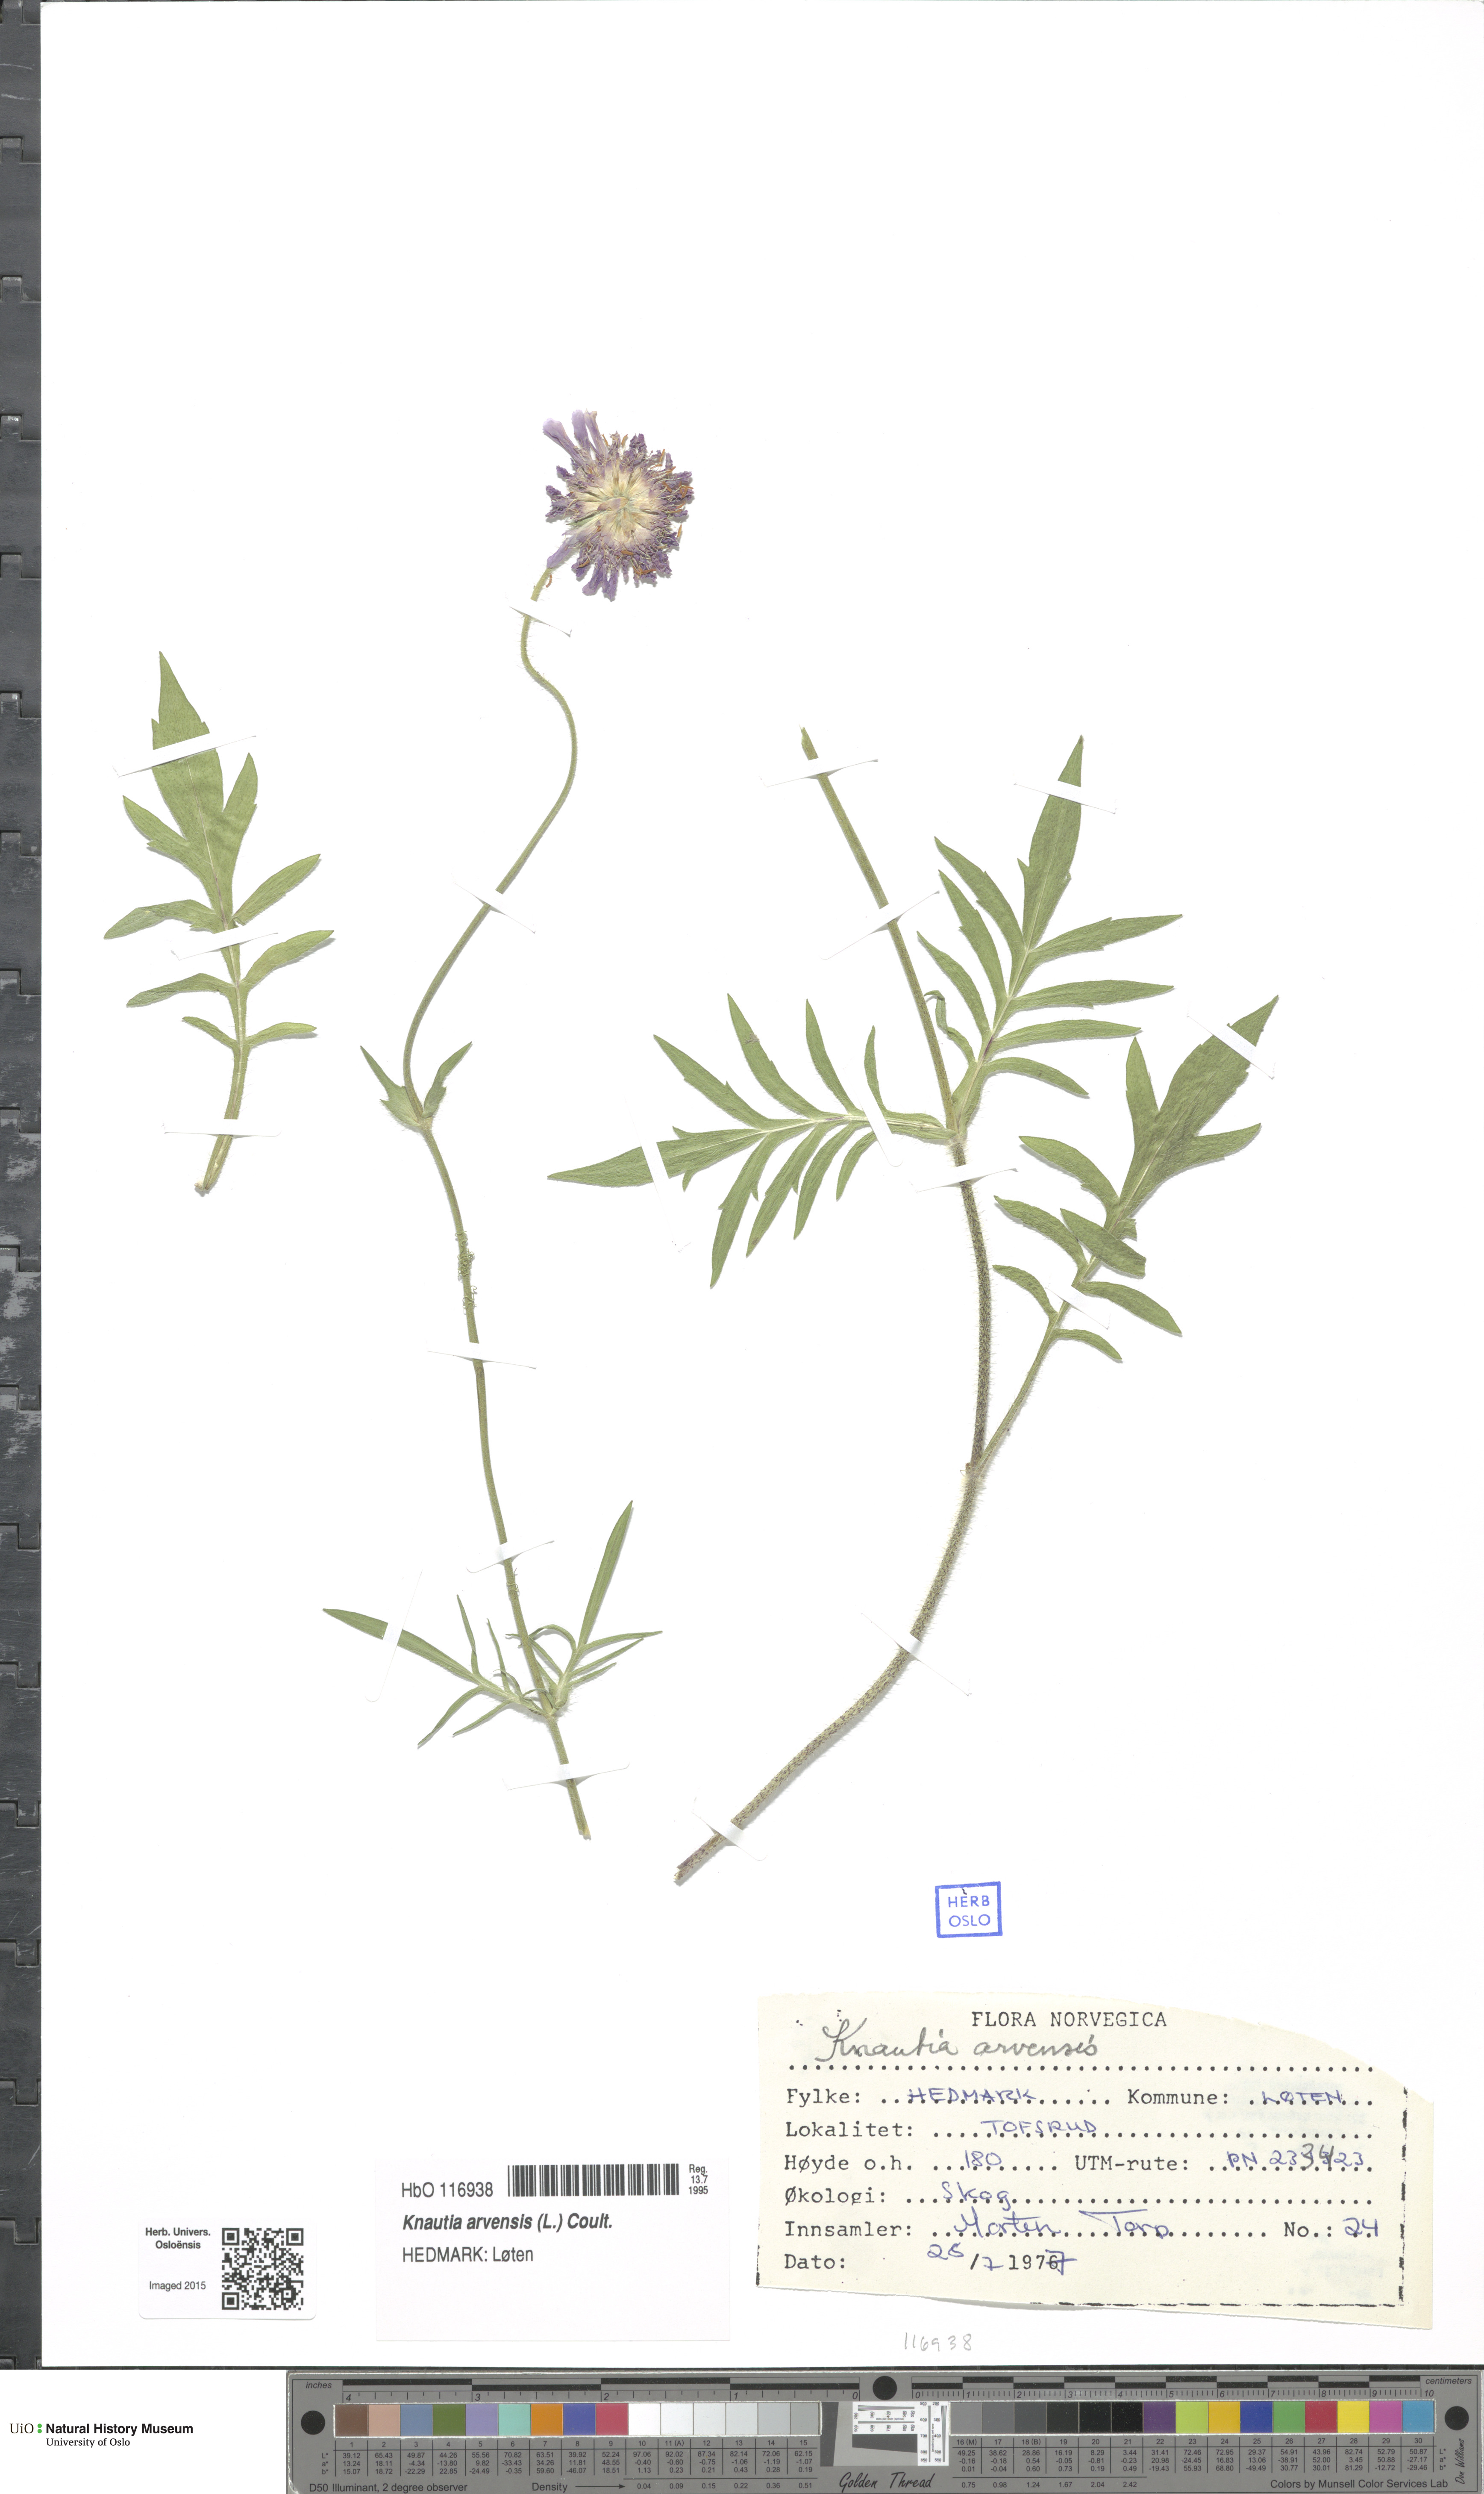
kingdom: Plantae
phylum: Tracheophyta
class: Magnoliopsida
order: Dipsacales
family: Caprifoliaceae
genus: Knautia
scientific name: Knautia arvensis
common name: Field scabiosa
